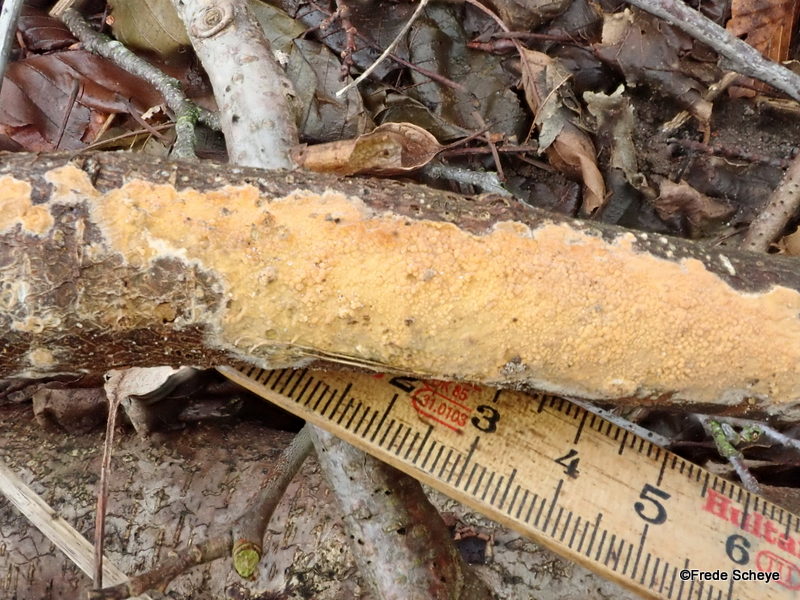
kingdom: Fungi
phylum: Basidiomycota
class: Agaricomycetes
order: Russulales
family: Peniophoraceae
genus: Peniophora
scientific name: Peniophora incarnata
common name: laksefarvet voksskind
